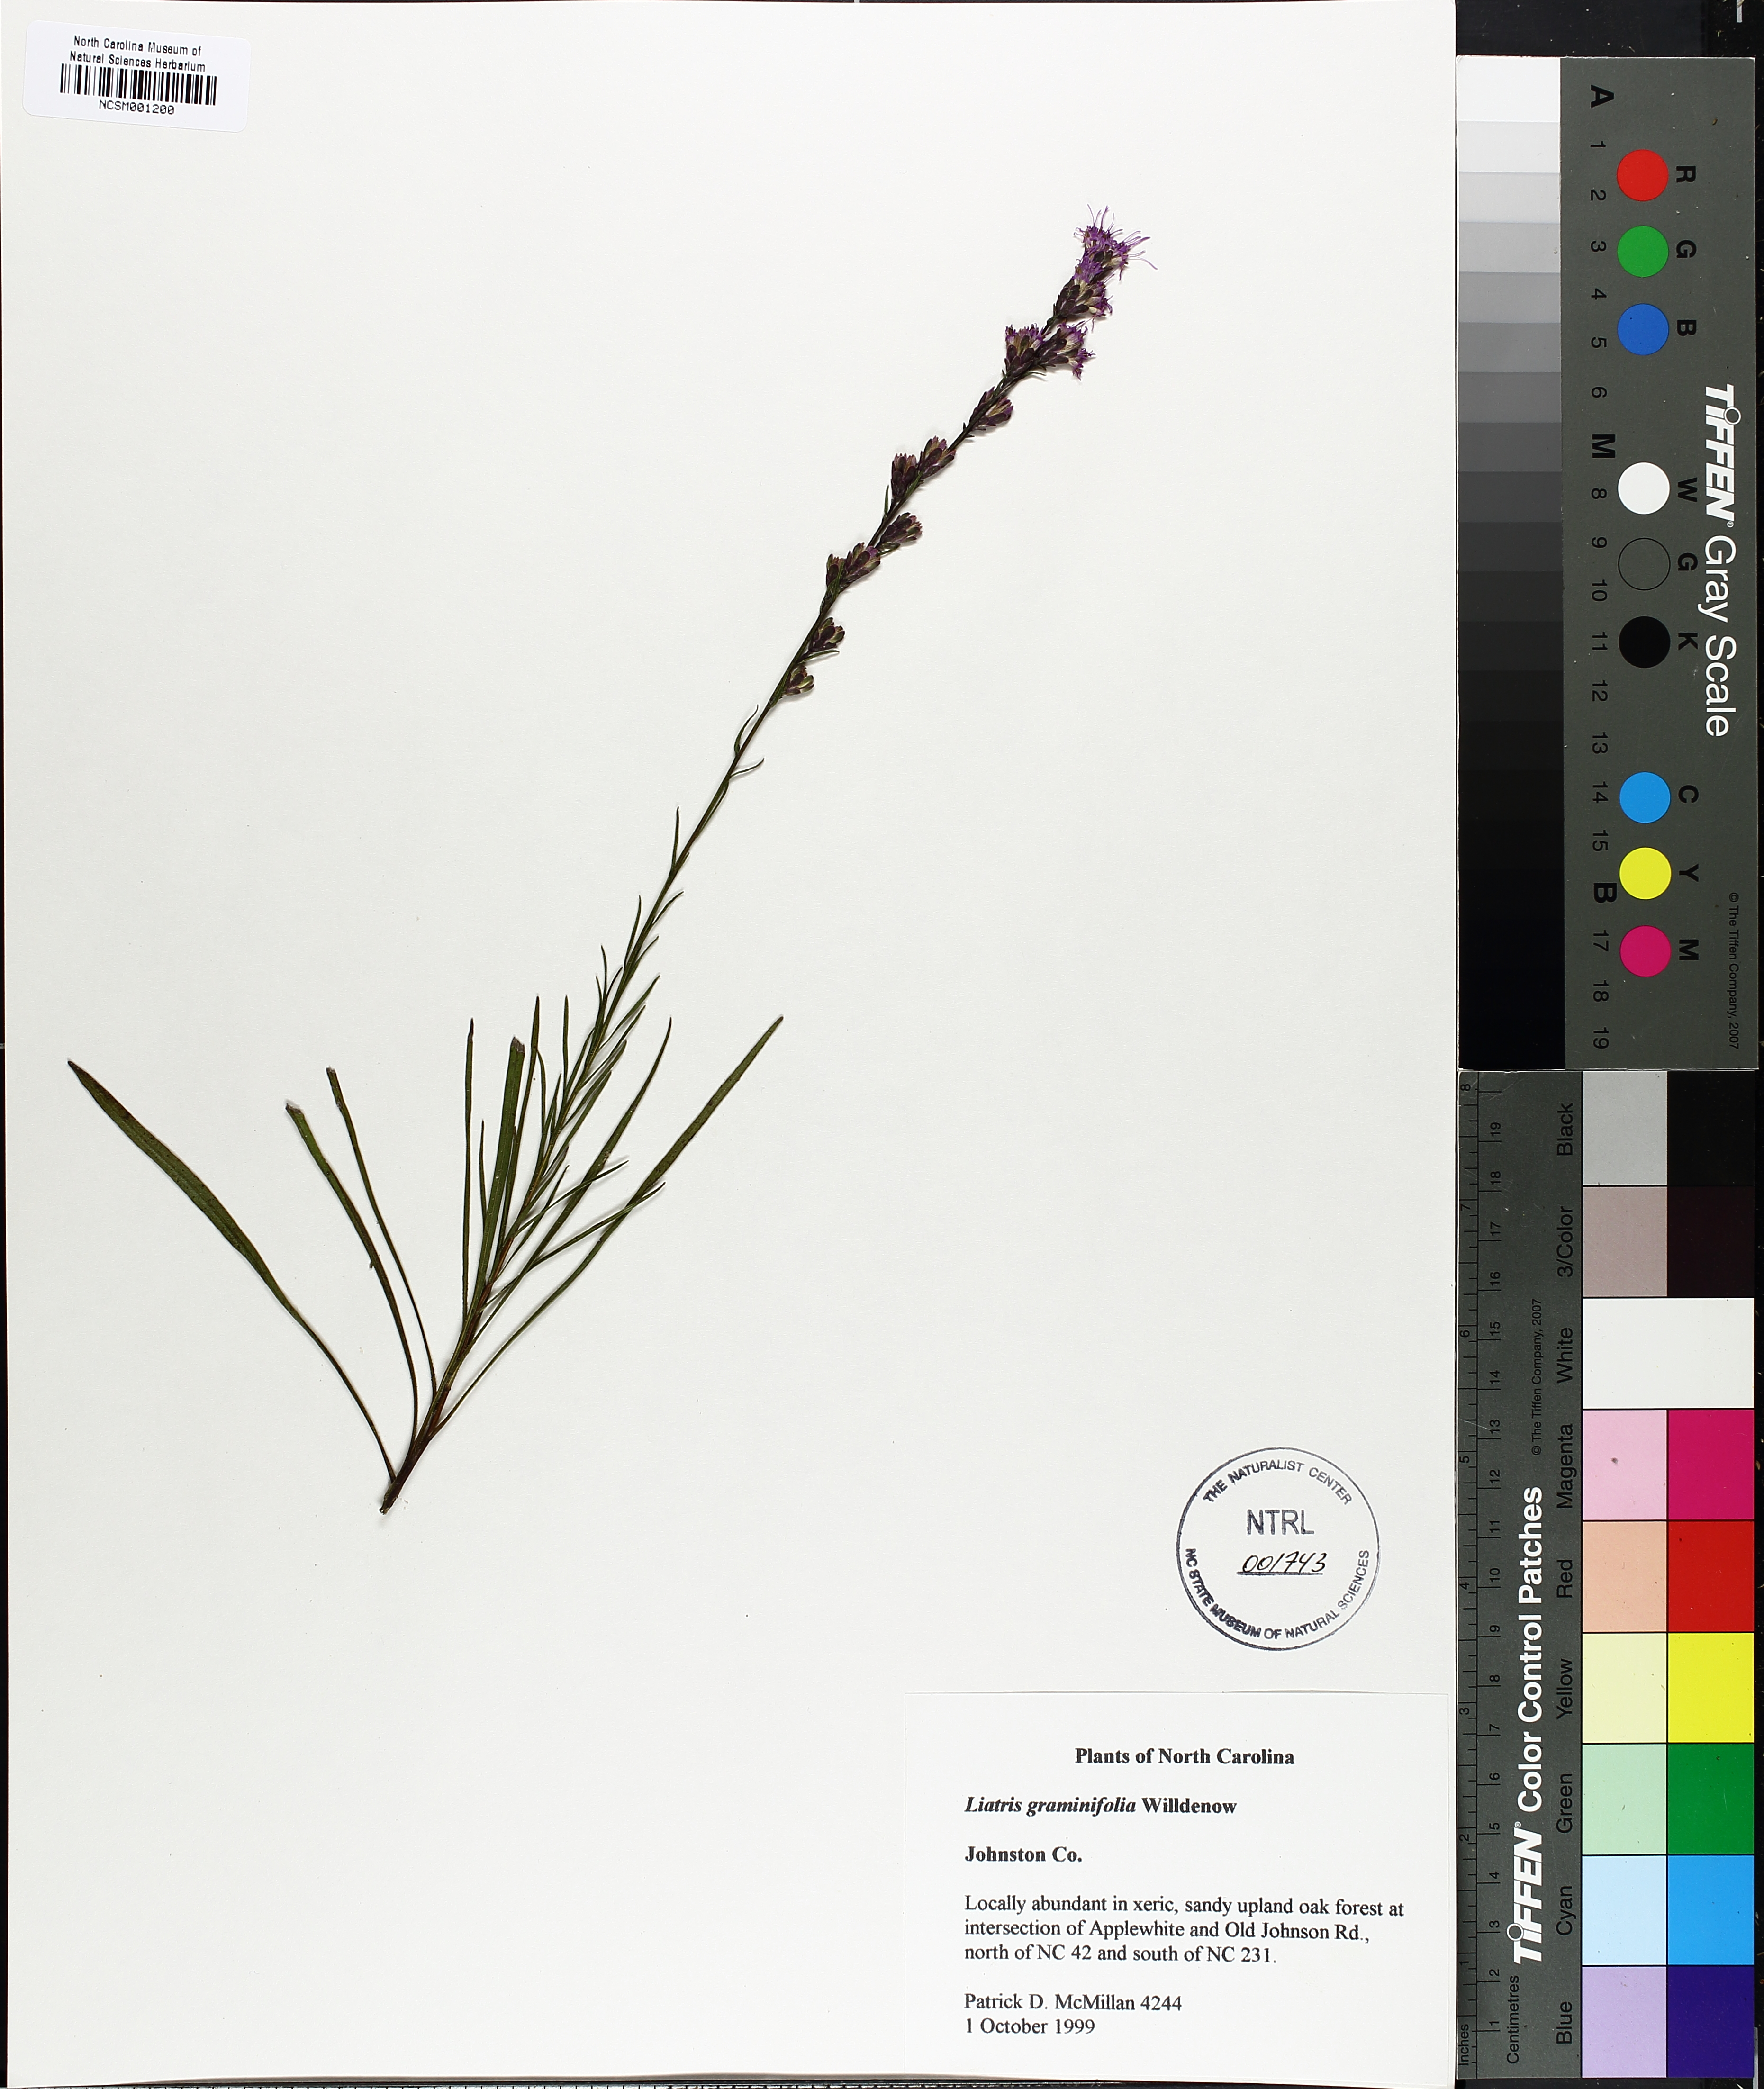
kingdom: Plantae
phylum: Tracheophyta
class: Magnoliopsida
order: Asterales
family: Asteraceae
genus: Liatris
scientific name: Liatris pilosa
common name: Grass-leaf gayfeather
